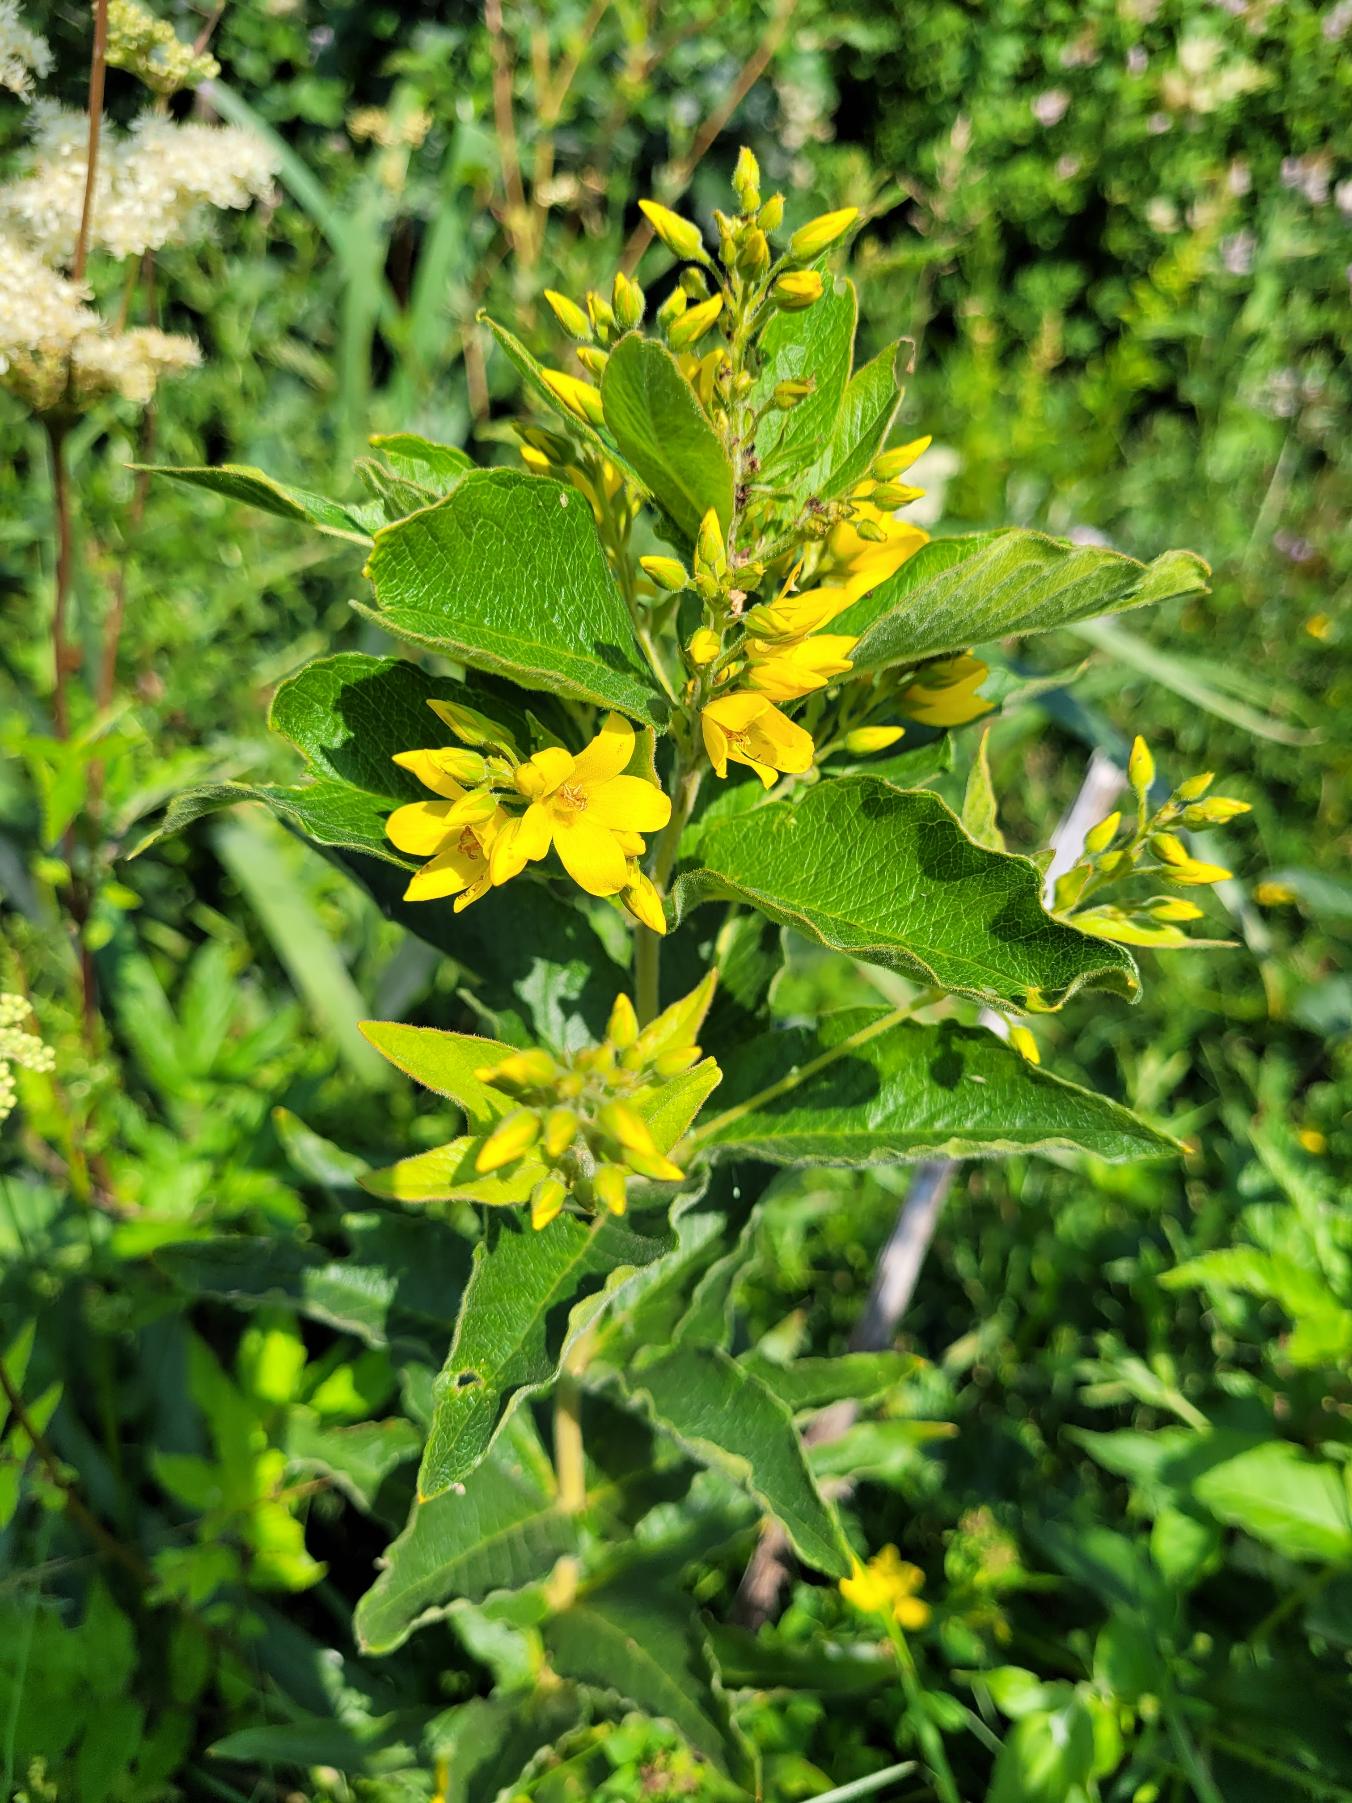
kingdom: Plantae
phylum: Tracheophyta
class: Magnoliopsida
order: Ericales
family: Primulaceae
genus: Lysimachia
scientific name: Lysimachia vulgaris
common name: Almindelig fredløs
